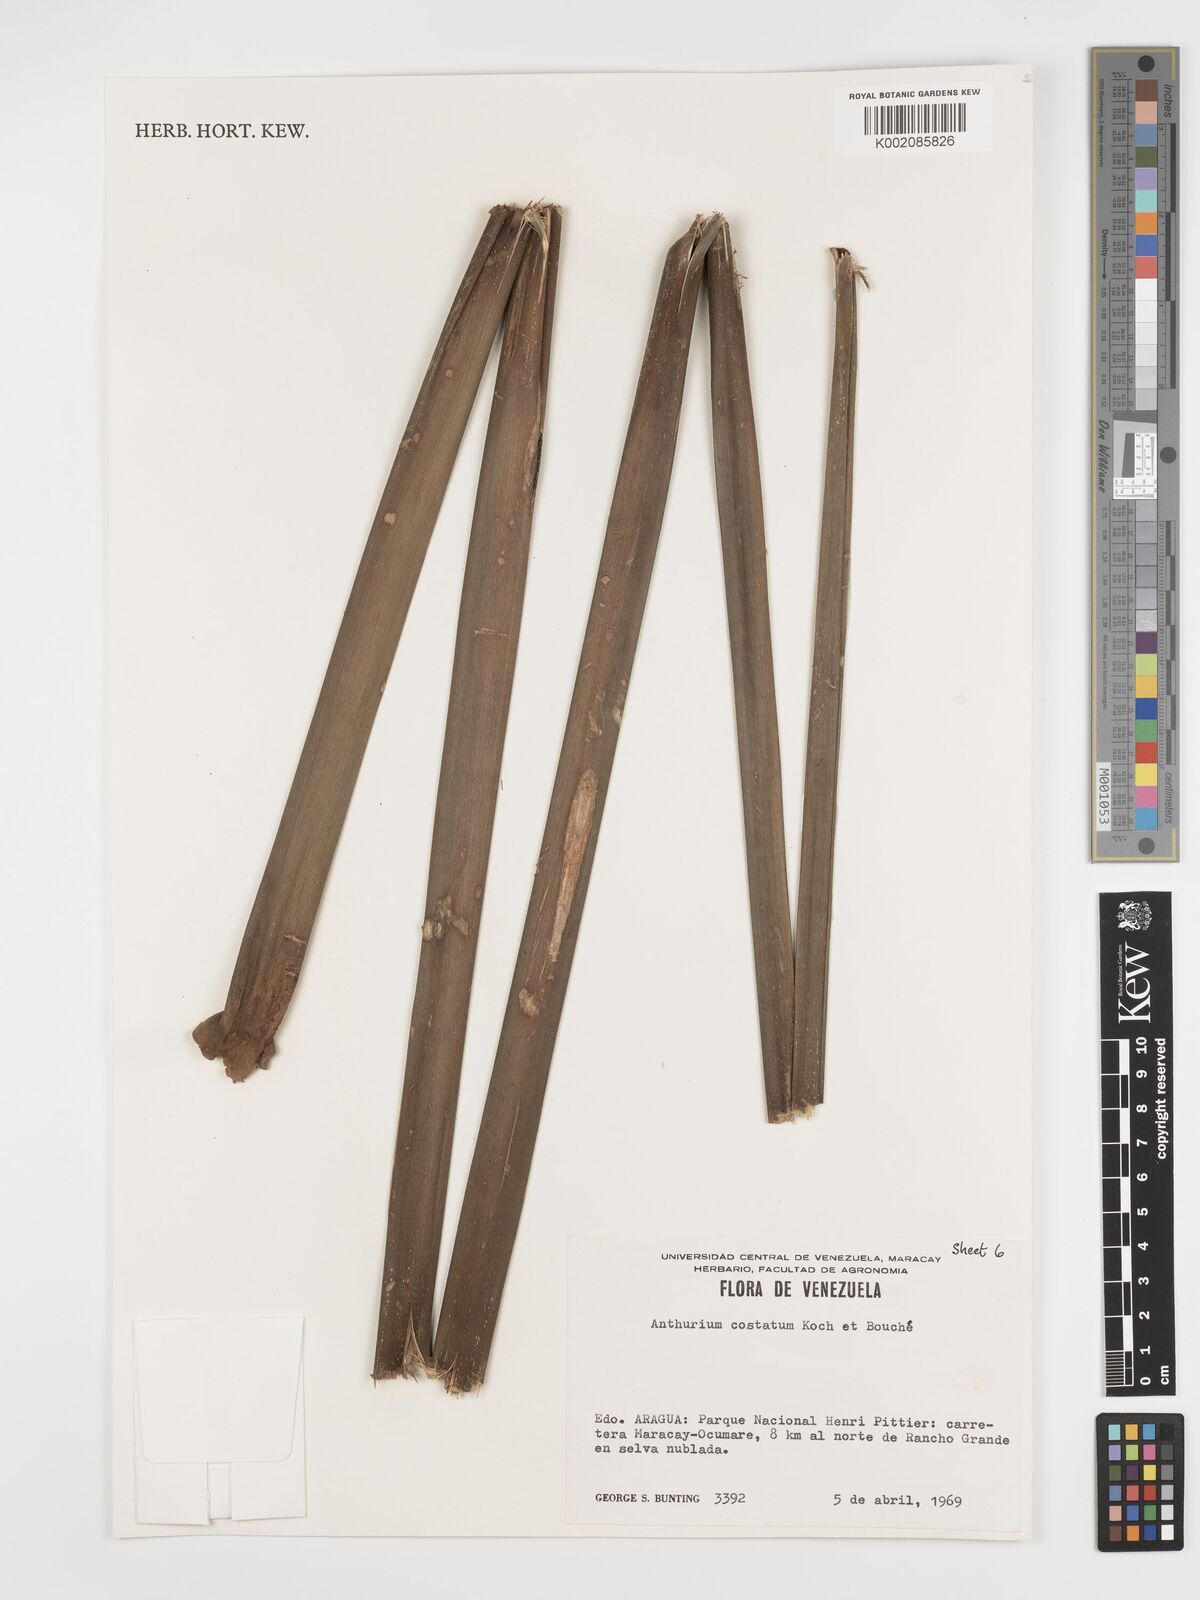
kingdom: Plantae
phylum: Tracheophyta
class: Liliopsida
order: Alismatales
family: Araceae
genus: Anthurium
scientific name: Anthurium macrophyllum
